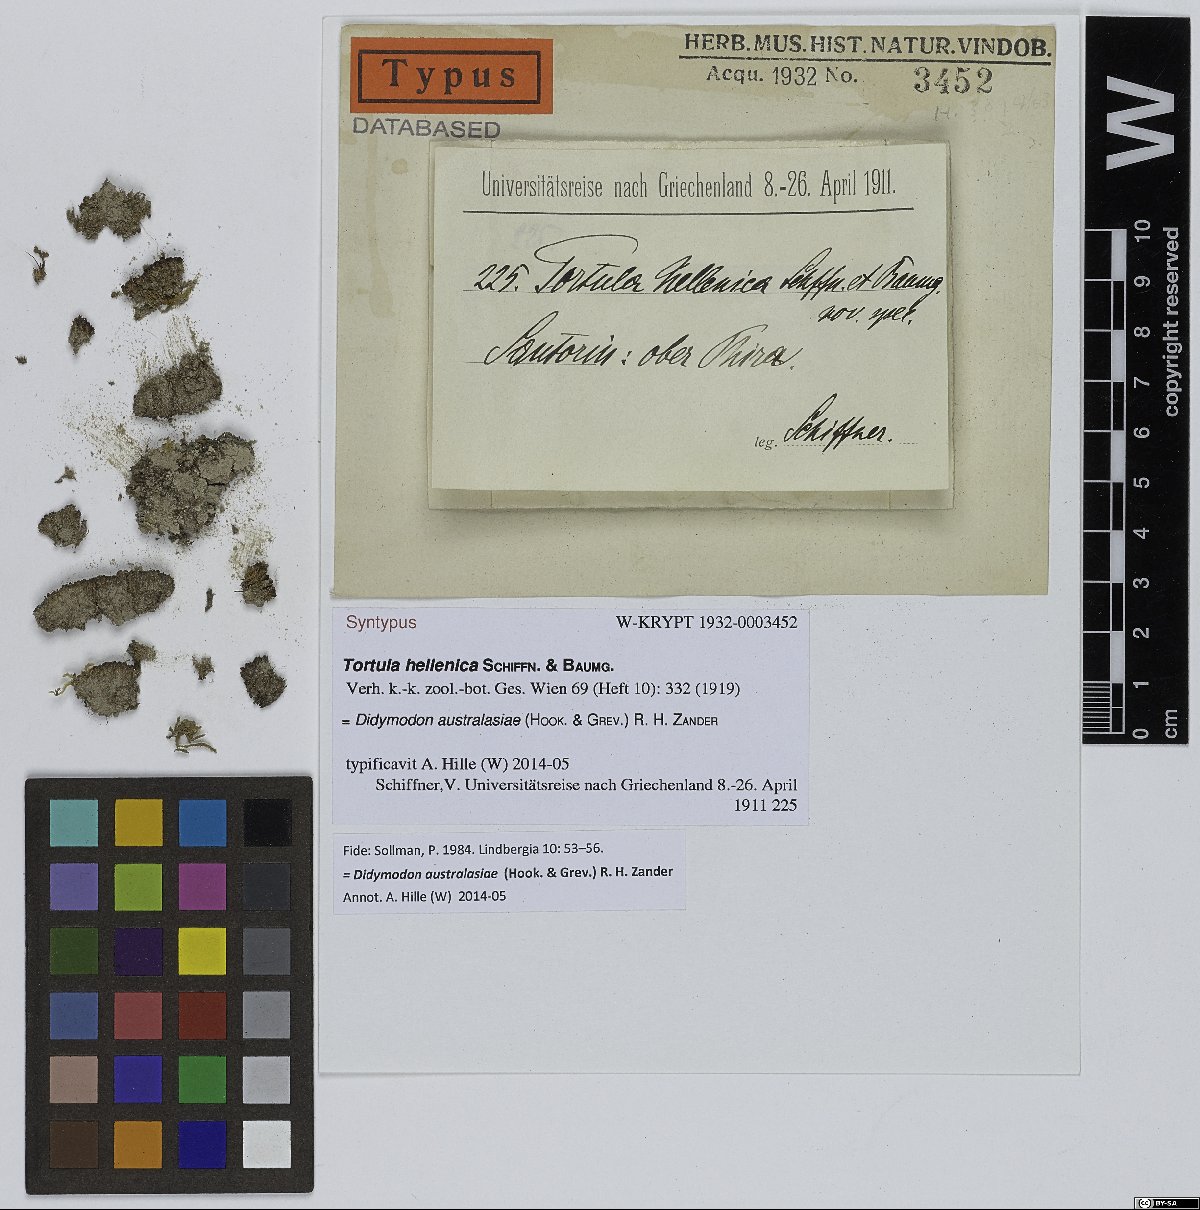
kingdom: Plantae
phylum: Bryophyta
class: Bryopsida
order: Pottiales
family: Pottiaceae
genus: Trichostomopsis
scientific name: Trichostomopsis australasiae
